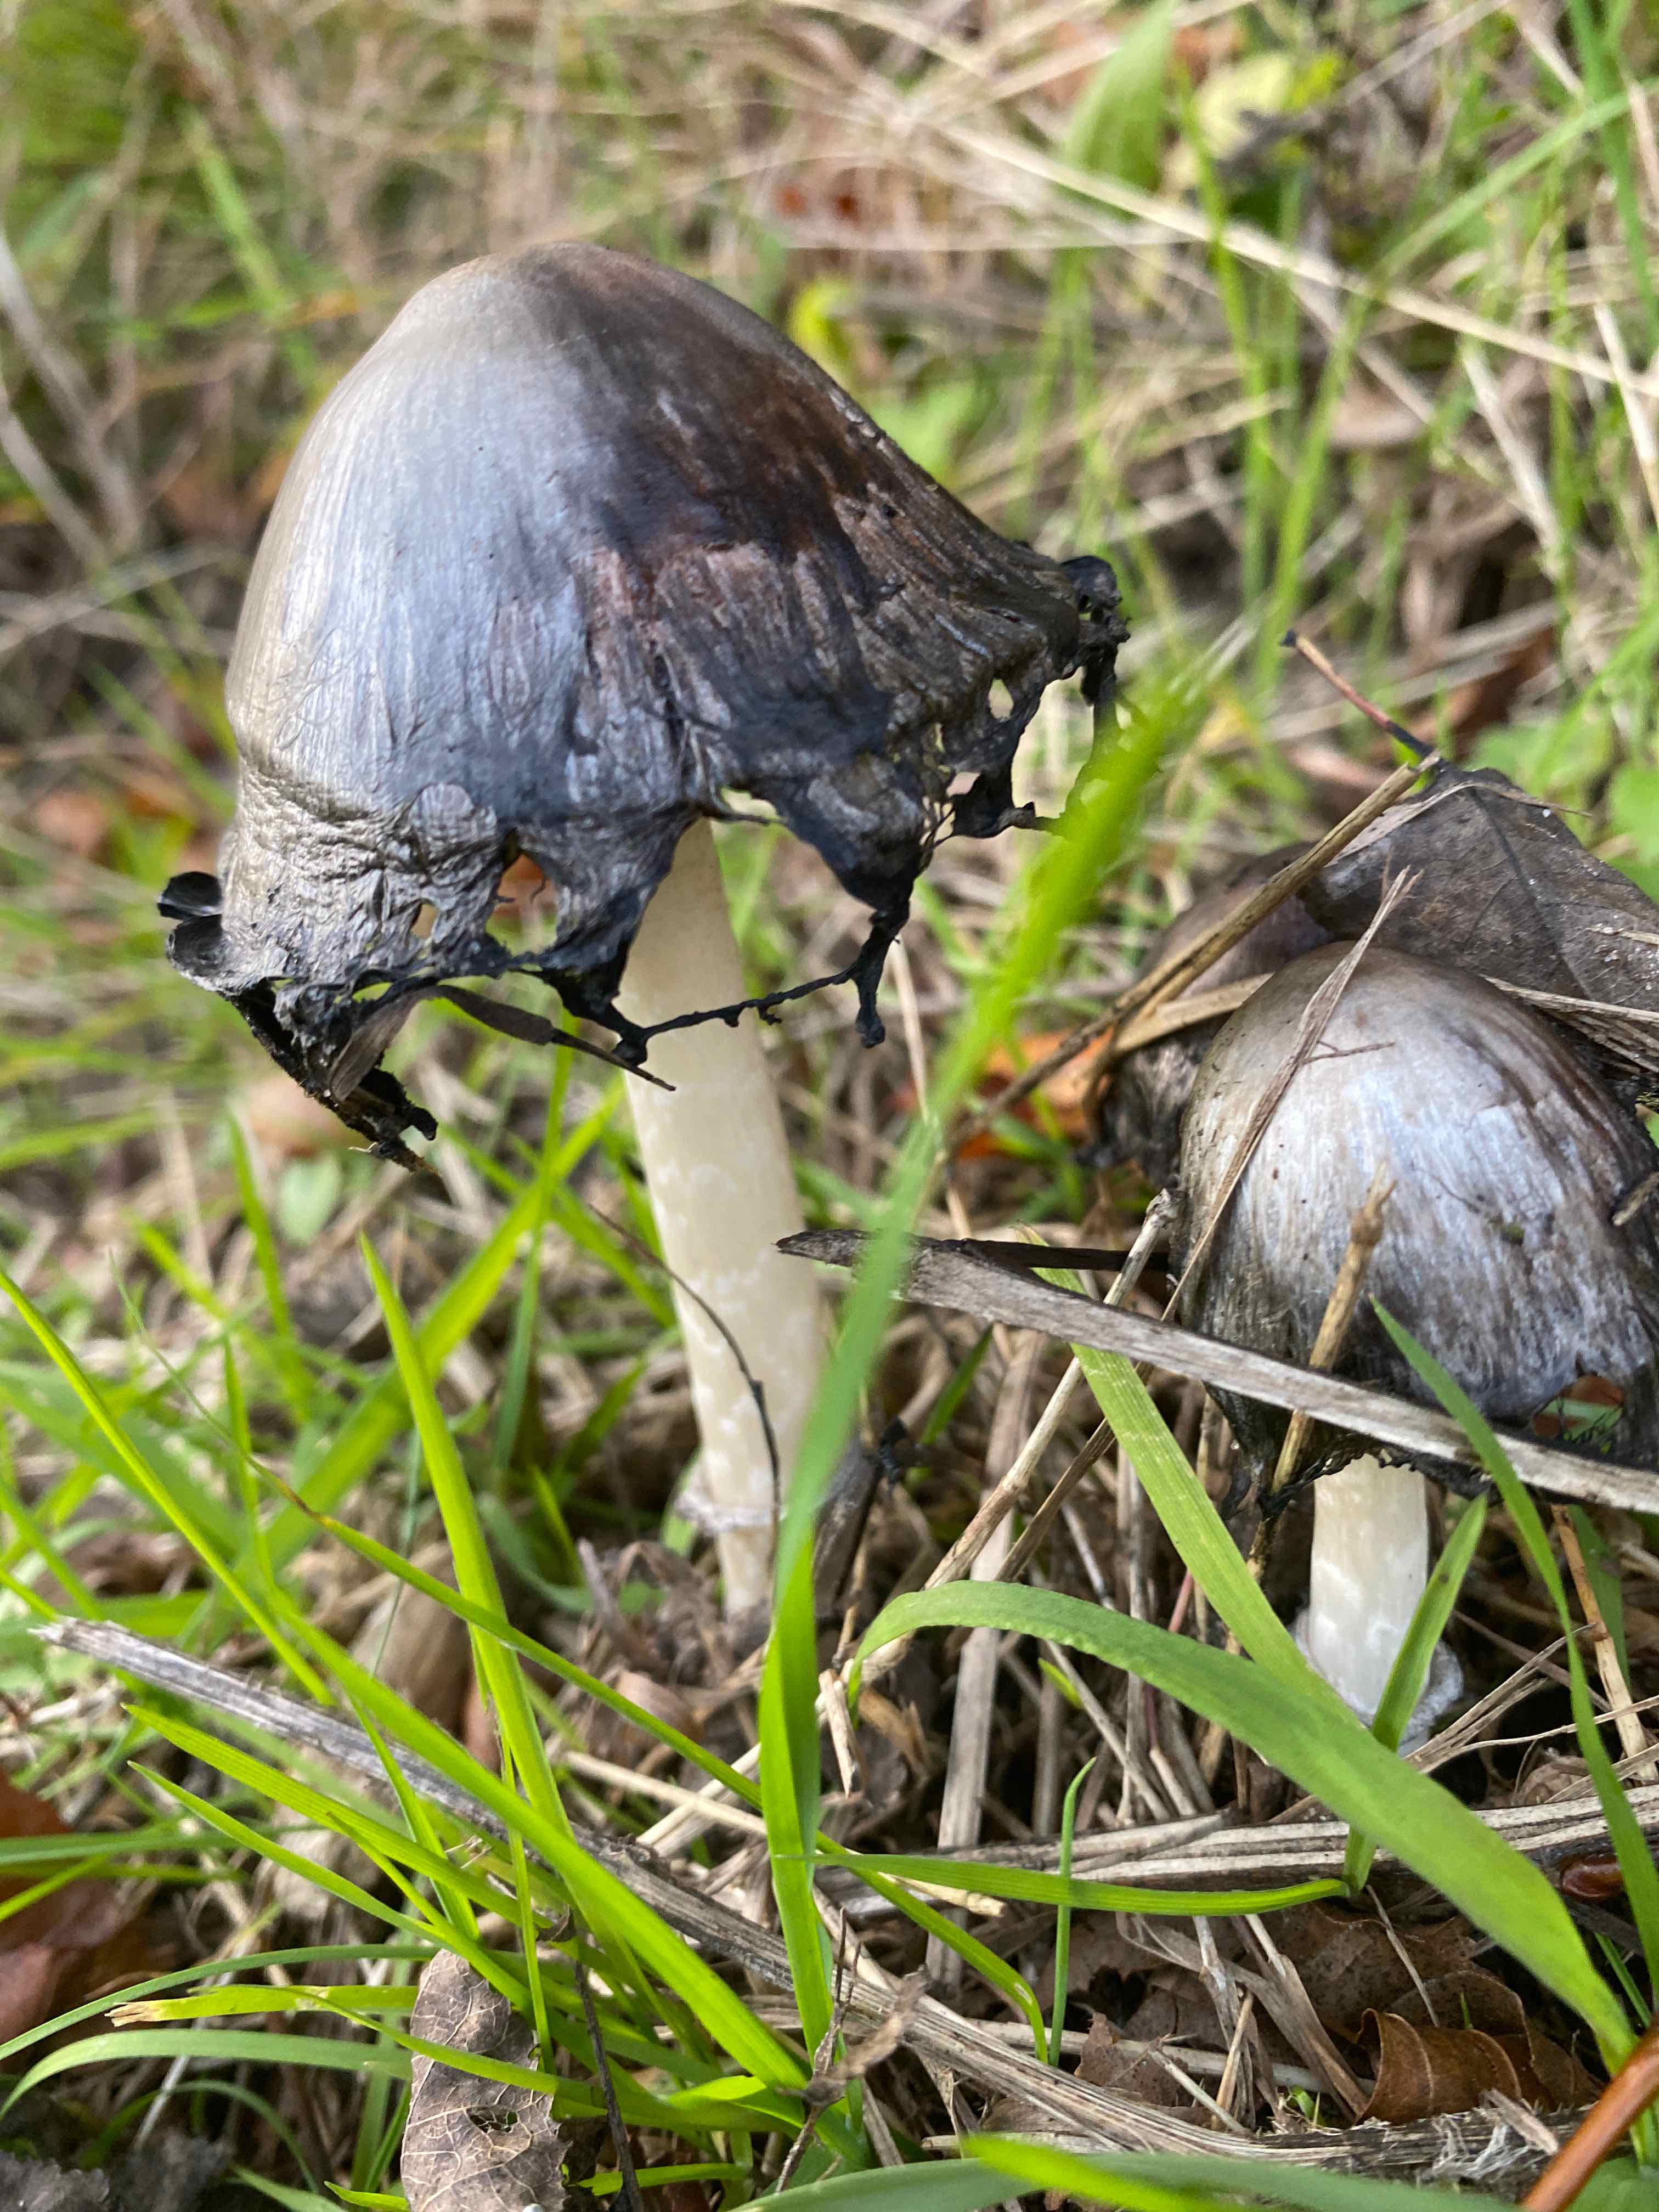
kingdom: Fungi
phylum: Basidiomycota
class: Agaricomycetes
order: Agaricales
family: Psathyrellaceae
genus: Coprinopsis
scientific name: Coprinopsis atramentaria
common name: almindelig blækhat
